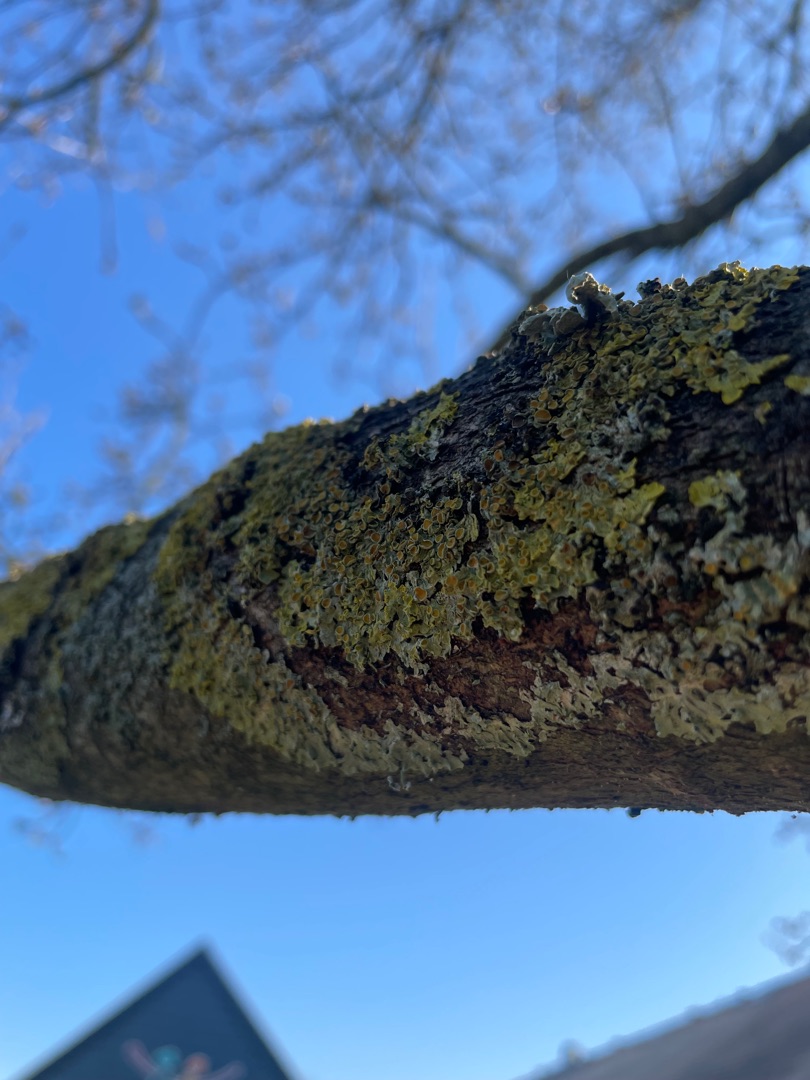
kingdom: Fungi
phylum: Ascomycota
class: Lecanoromycetes
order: Teloschistales
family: Teloschistaceae
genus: Xanthoria
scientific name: Xanthoria parietina
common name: Almindelig væggelav
